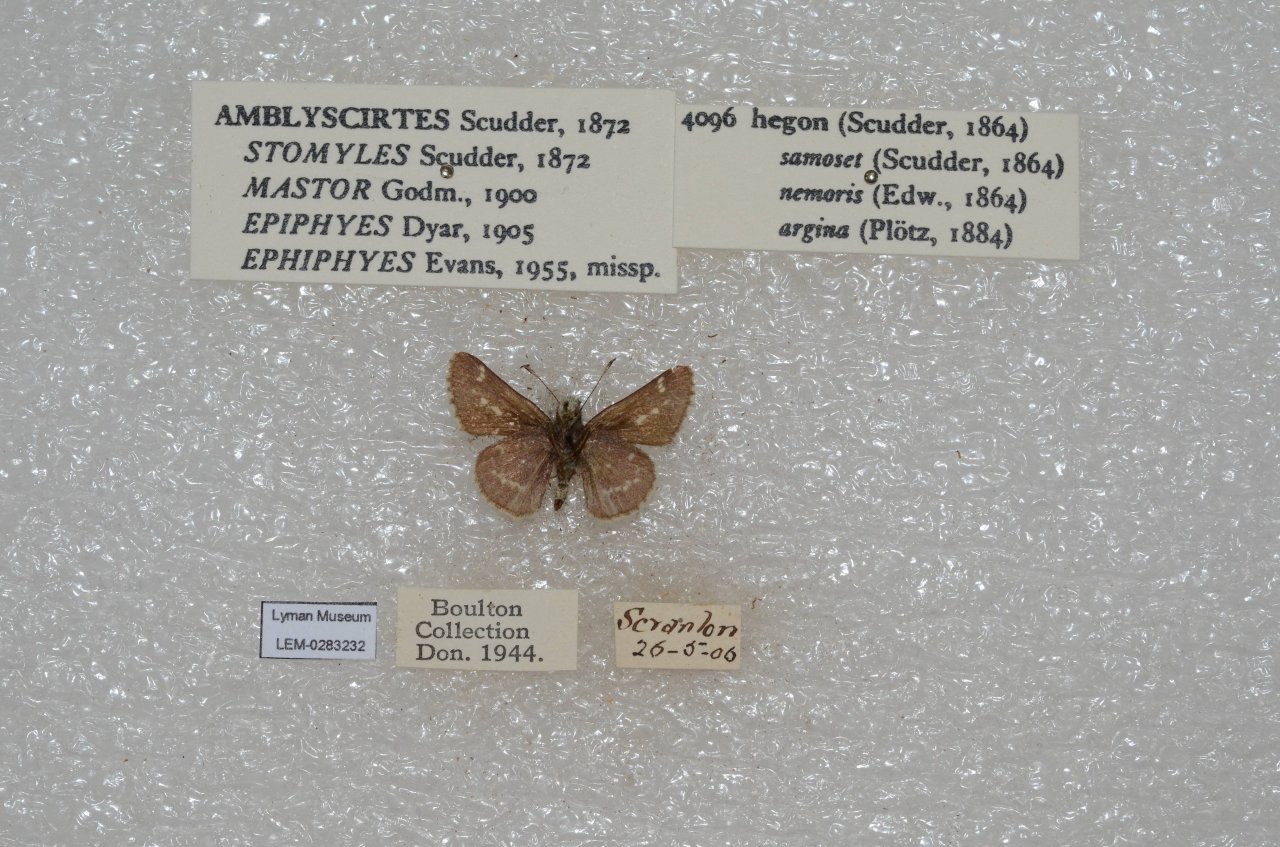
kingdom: Animalia
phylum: Arthropoda
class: Insecta
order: Lepidoptera
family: Hesperiidae
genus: Mastor
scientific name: Mastor hegon
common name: Pepper and Salt Skipper
